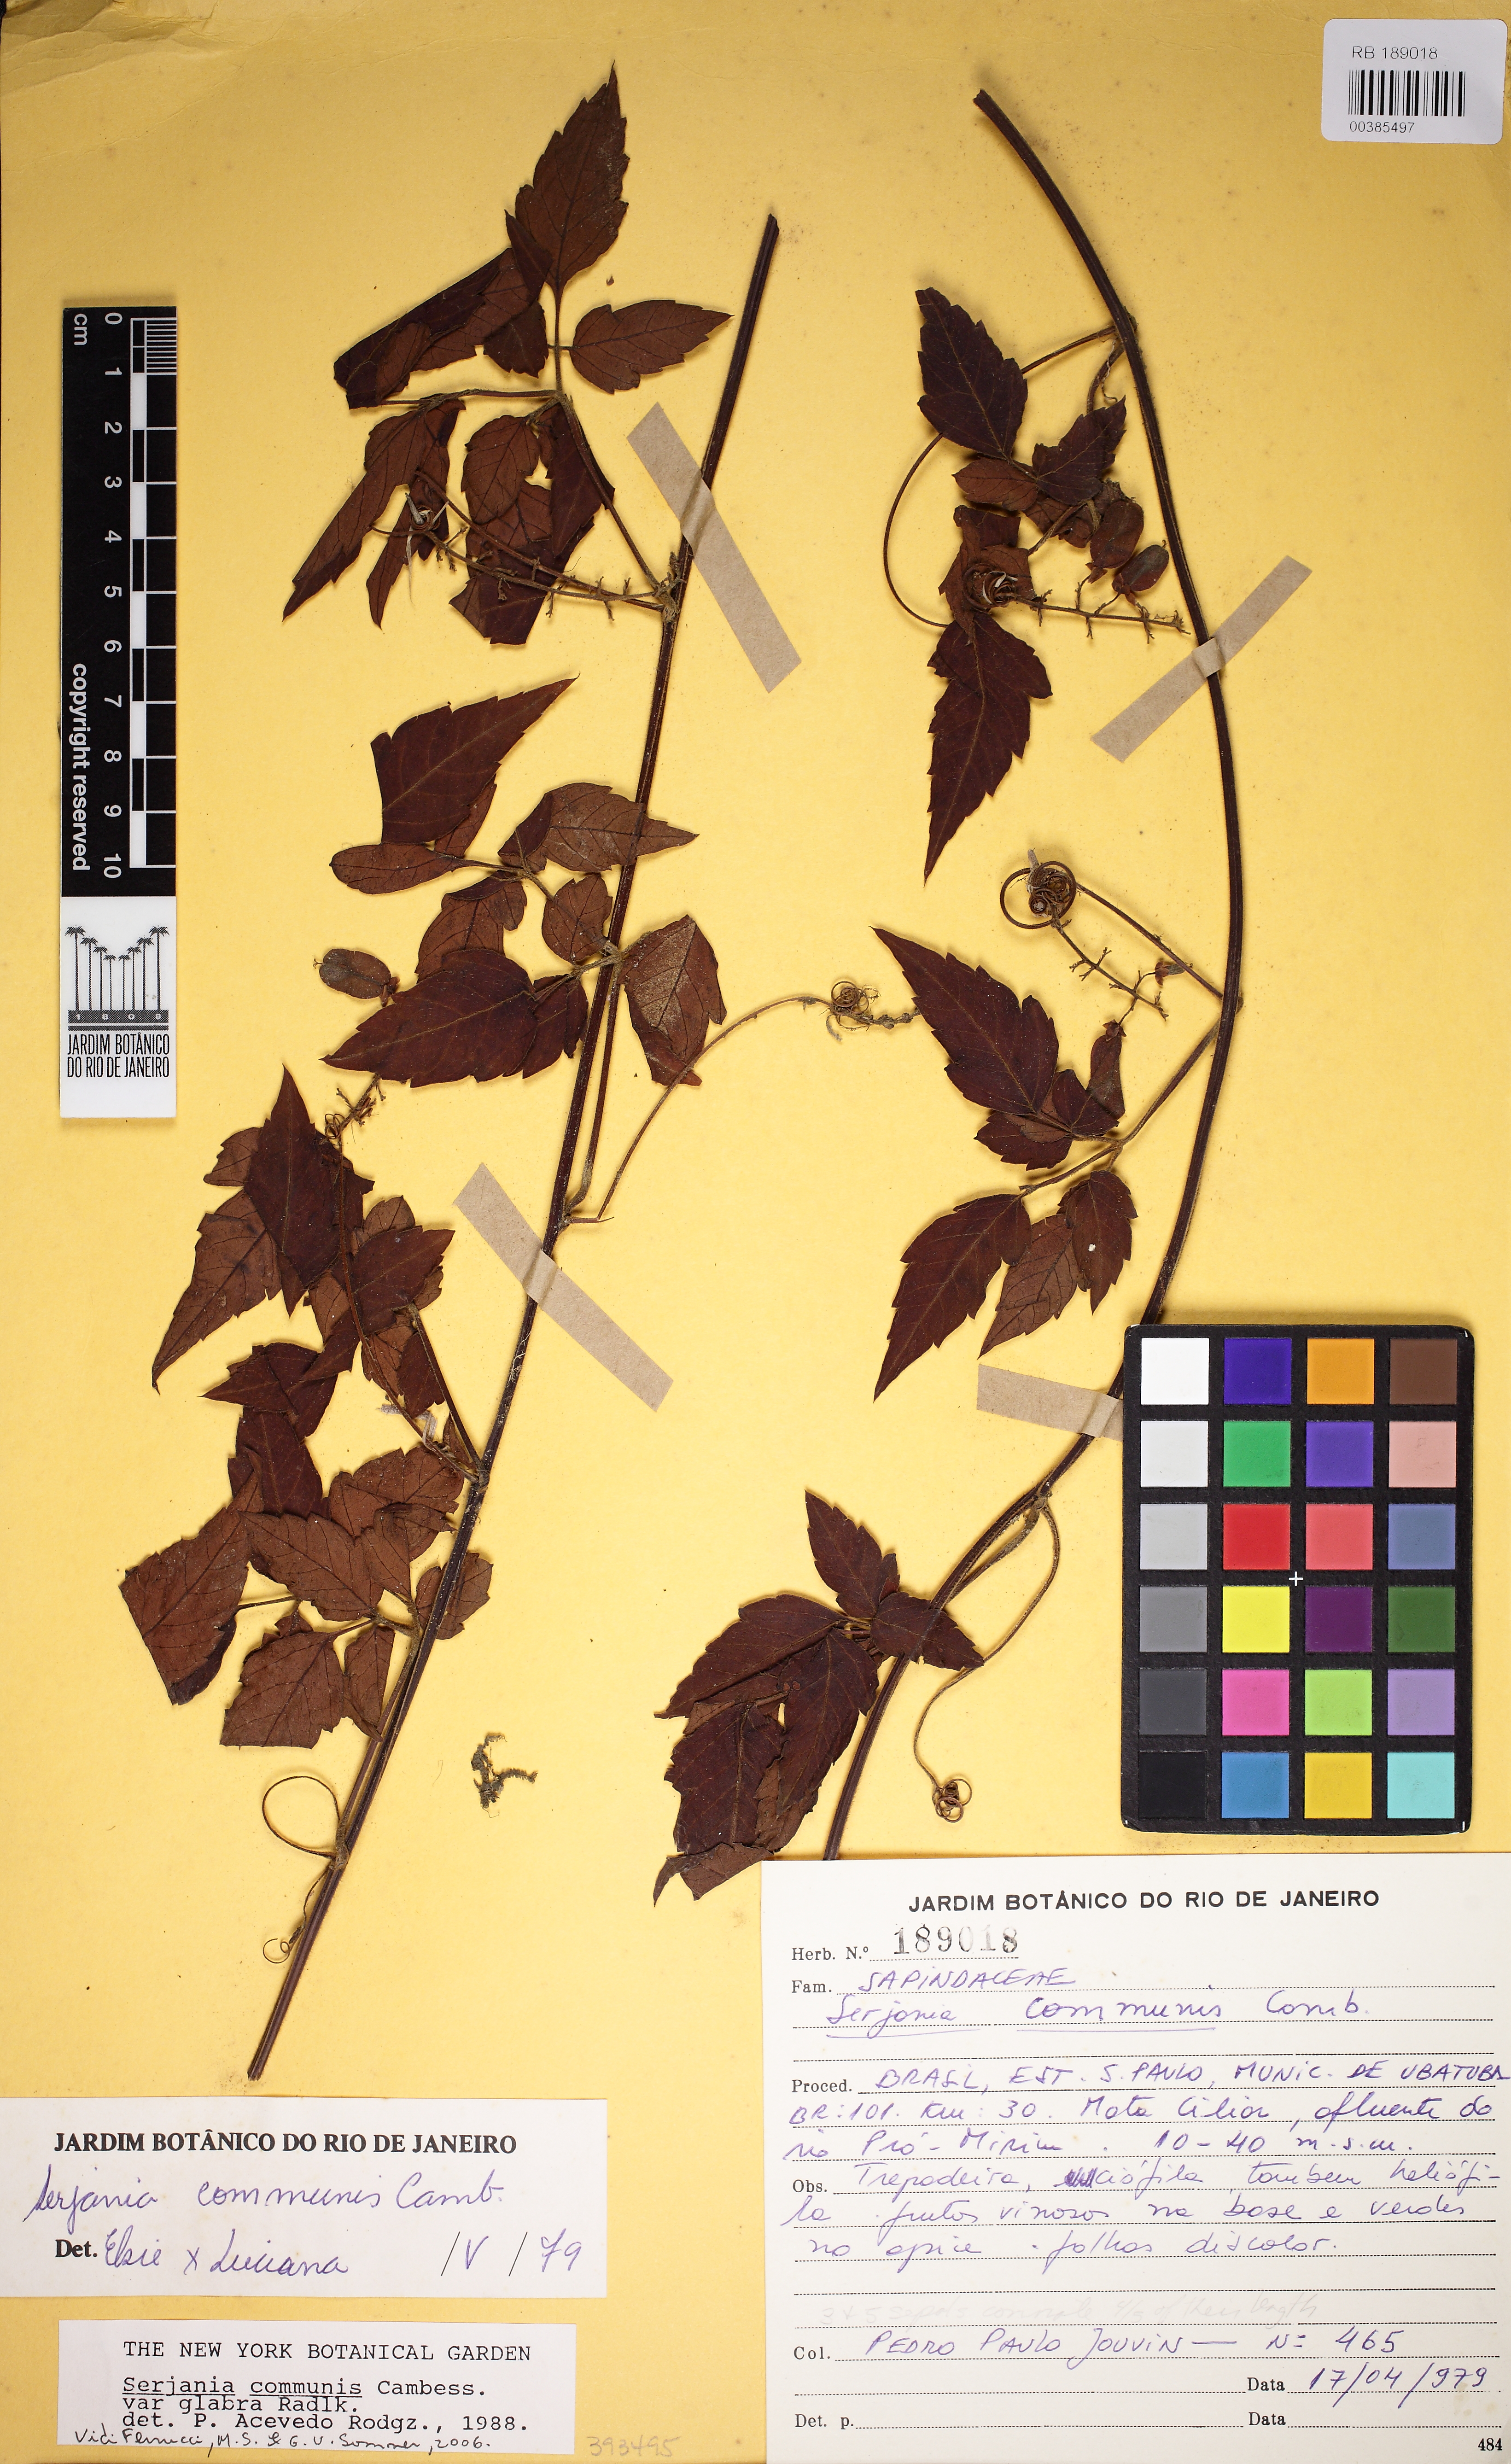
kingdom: Plantae
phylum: Tracheophyta
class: Magnoliopsida
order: Sapindales
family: Sapindaceae
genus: Serjania
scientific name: Serjania communis
